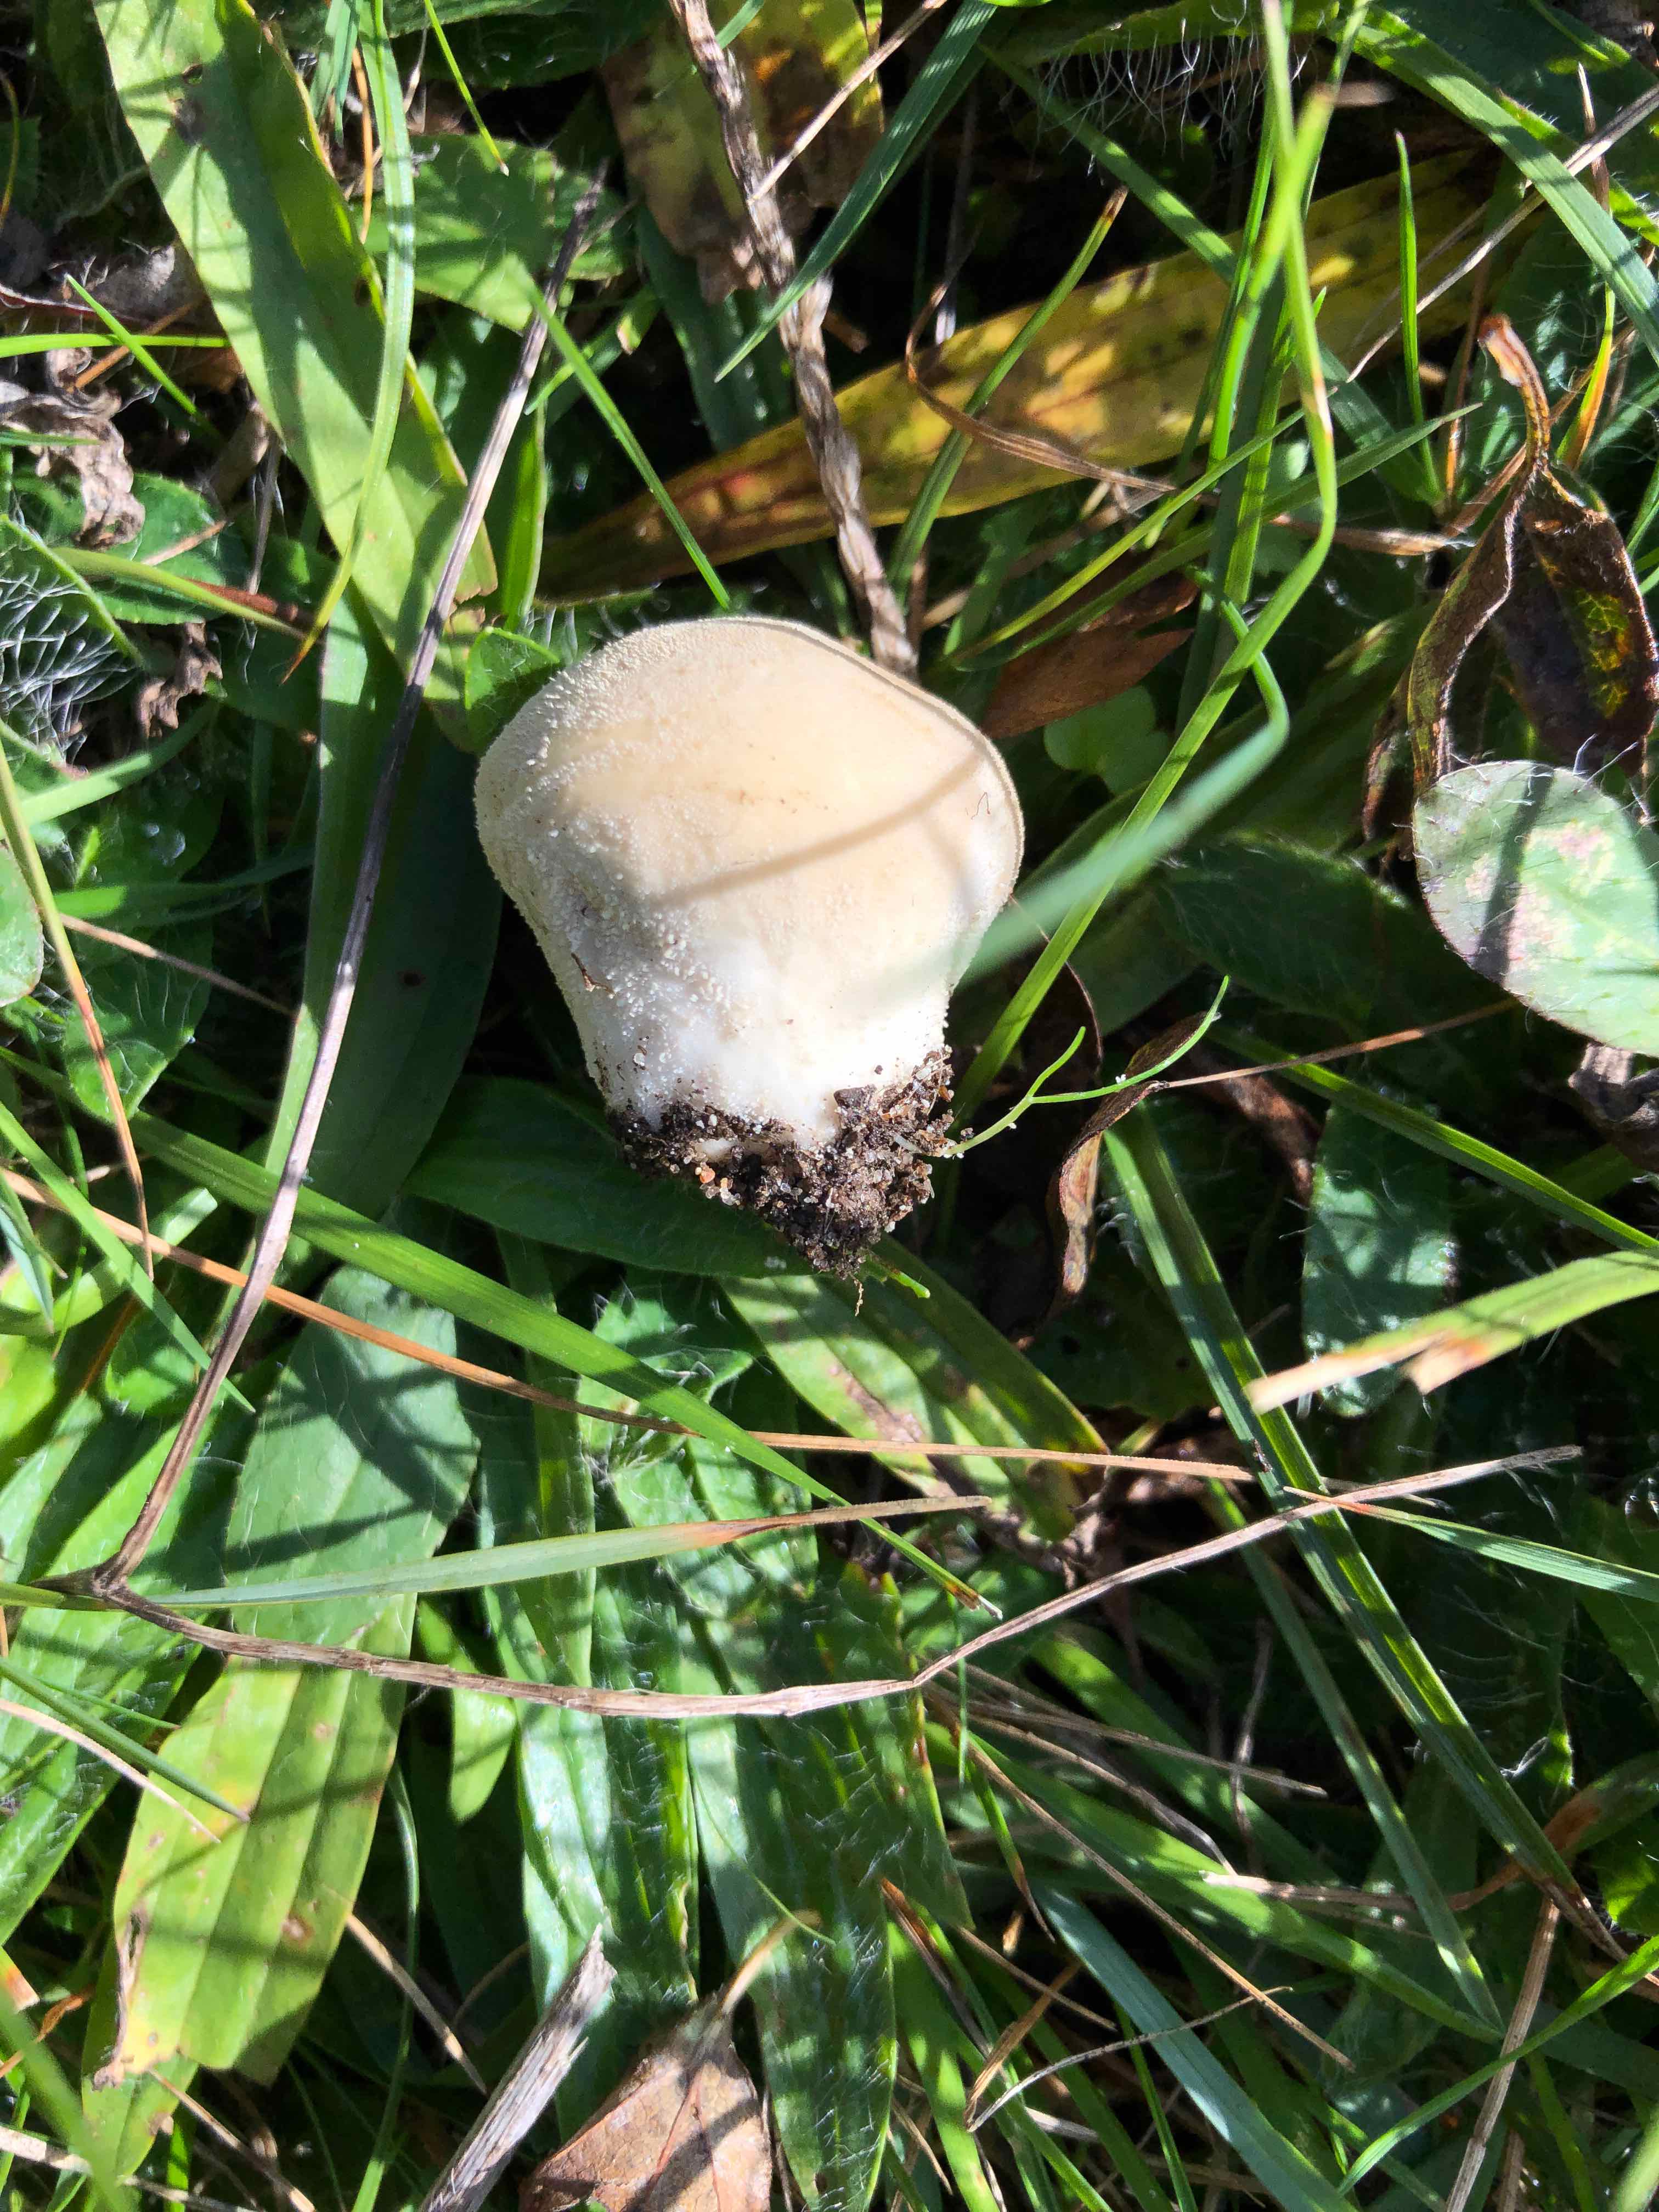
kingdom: Fungi
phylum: Basidiomycota
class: Agaricomycetes
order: Agaricales
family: Lycoperdaceae
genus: Lycoperdon
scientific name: Lycoperdon pratense
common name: flad støvbold
